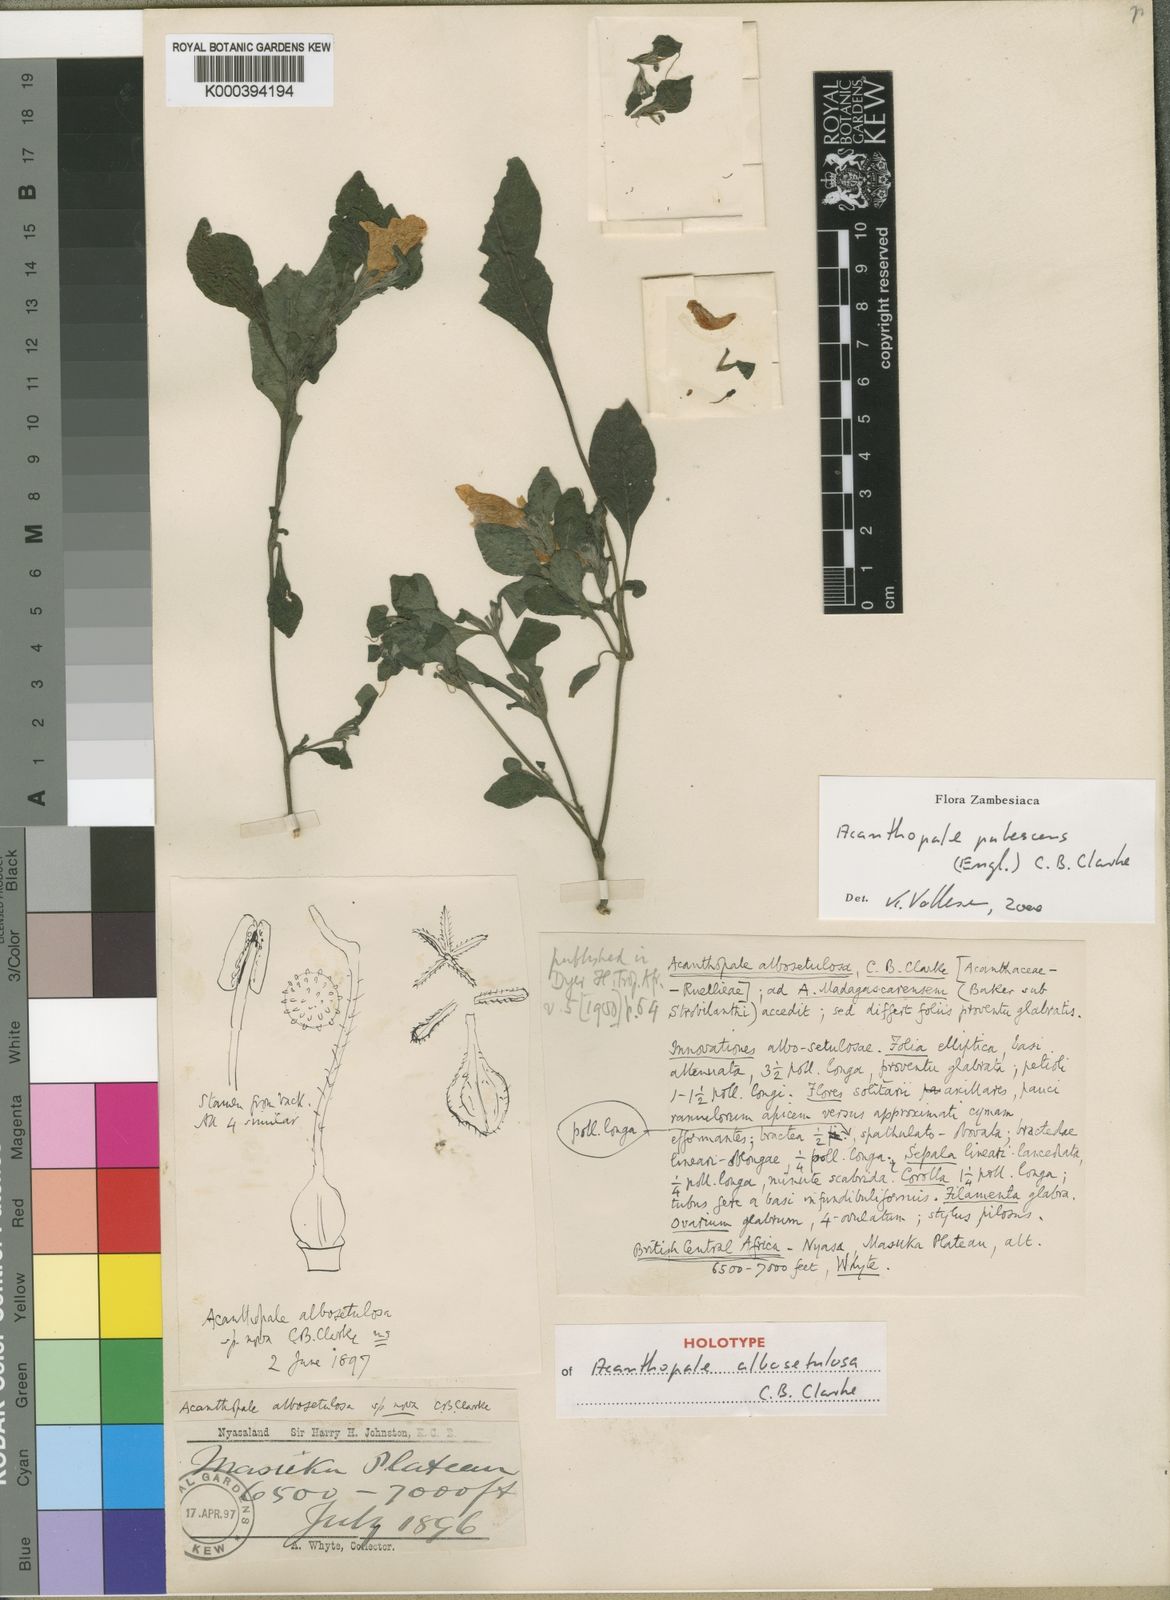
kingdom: Plantae
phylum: Tracheophyta
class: Magnoliopsida
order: Lamiales
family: Acanthaceae
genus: Acanthopale
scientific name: Acanthopale pubescens
